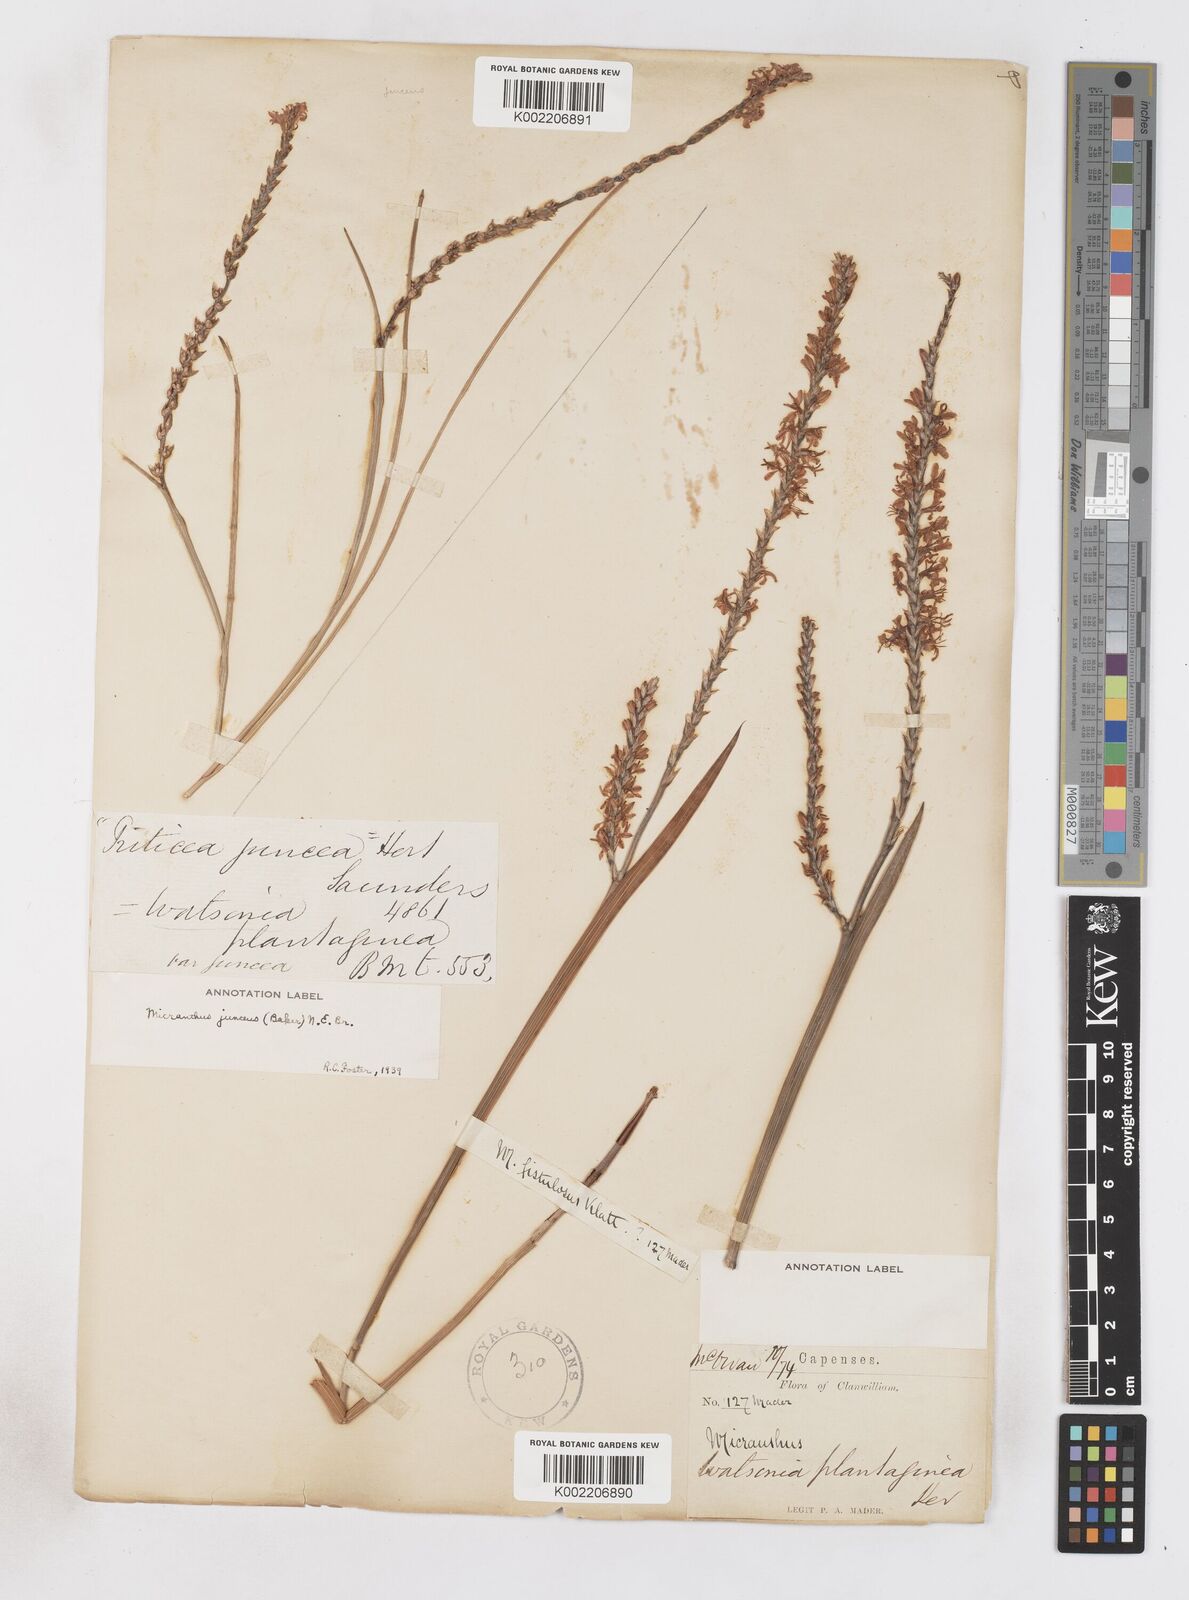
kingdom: Plantae
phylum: Tracheophyta
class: Liliopsida
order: Asparagales
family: Iridaceae
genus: Micranthus
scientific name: Micranthus plantagineus
